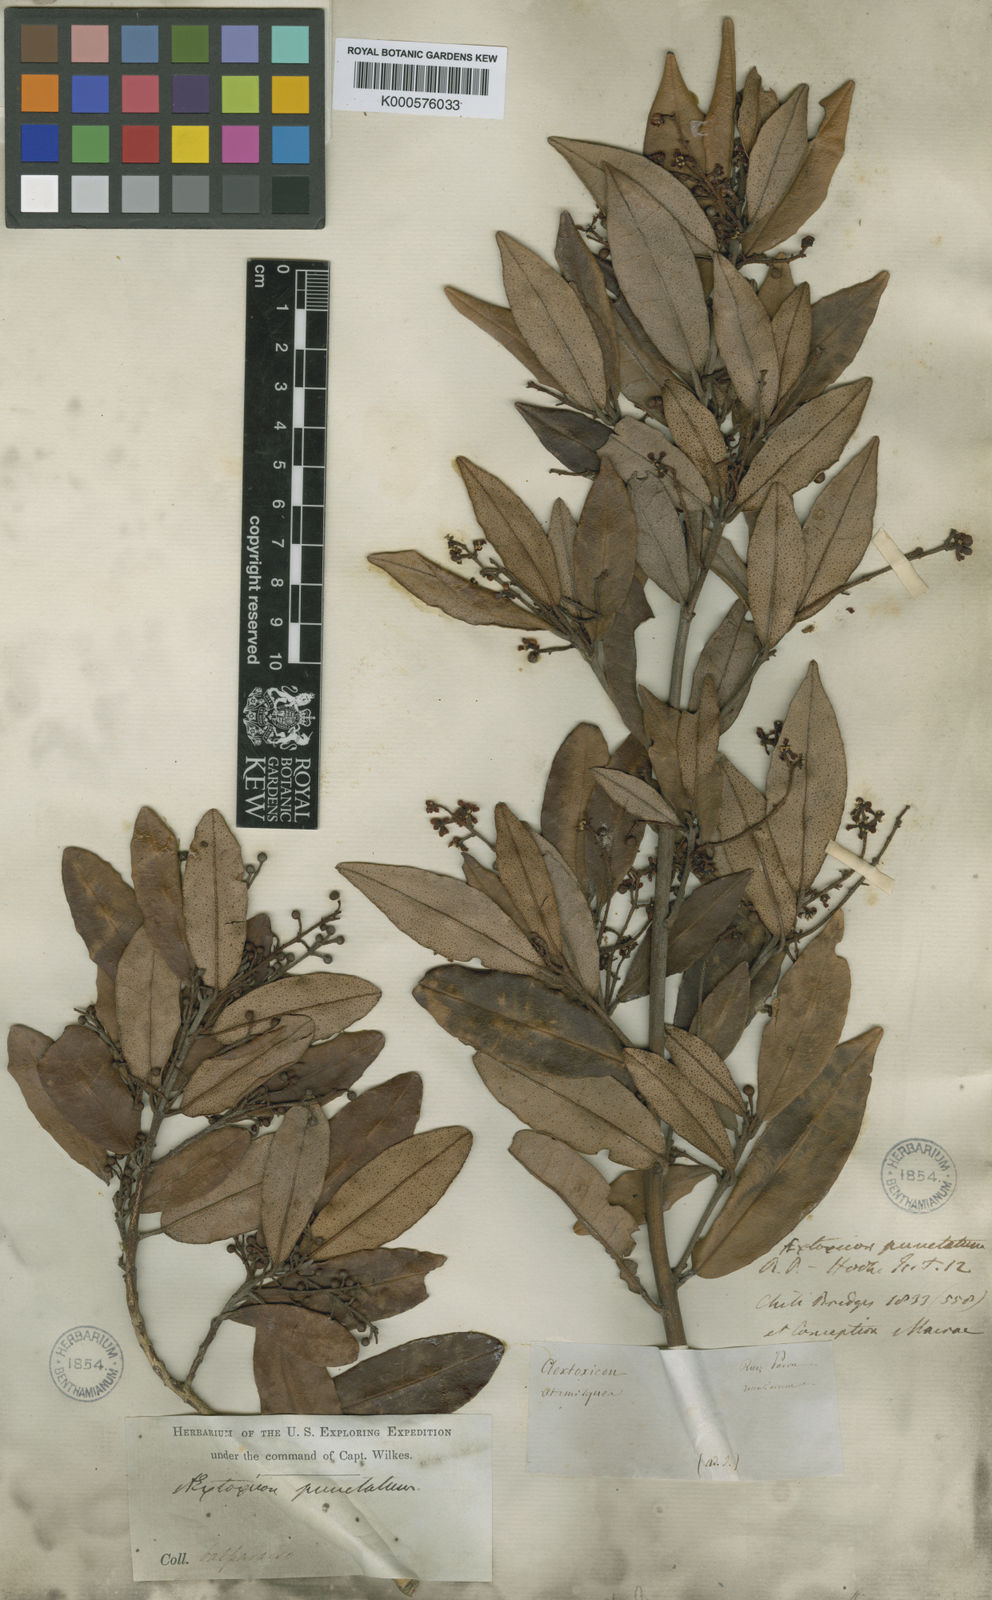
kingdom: Plantae
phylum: Tracheophyta
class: Magnoliopsida
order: Berberidopsidales
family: Aextoxicaceae
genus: Aextoxicon
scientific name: Aextoxicon punctatum
